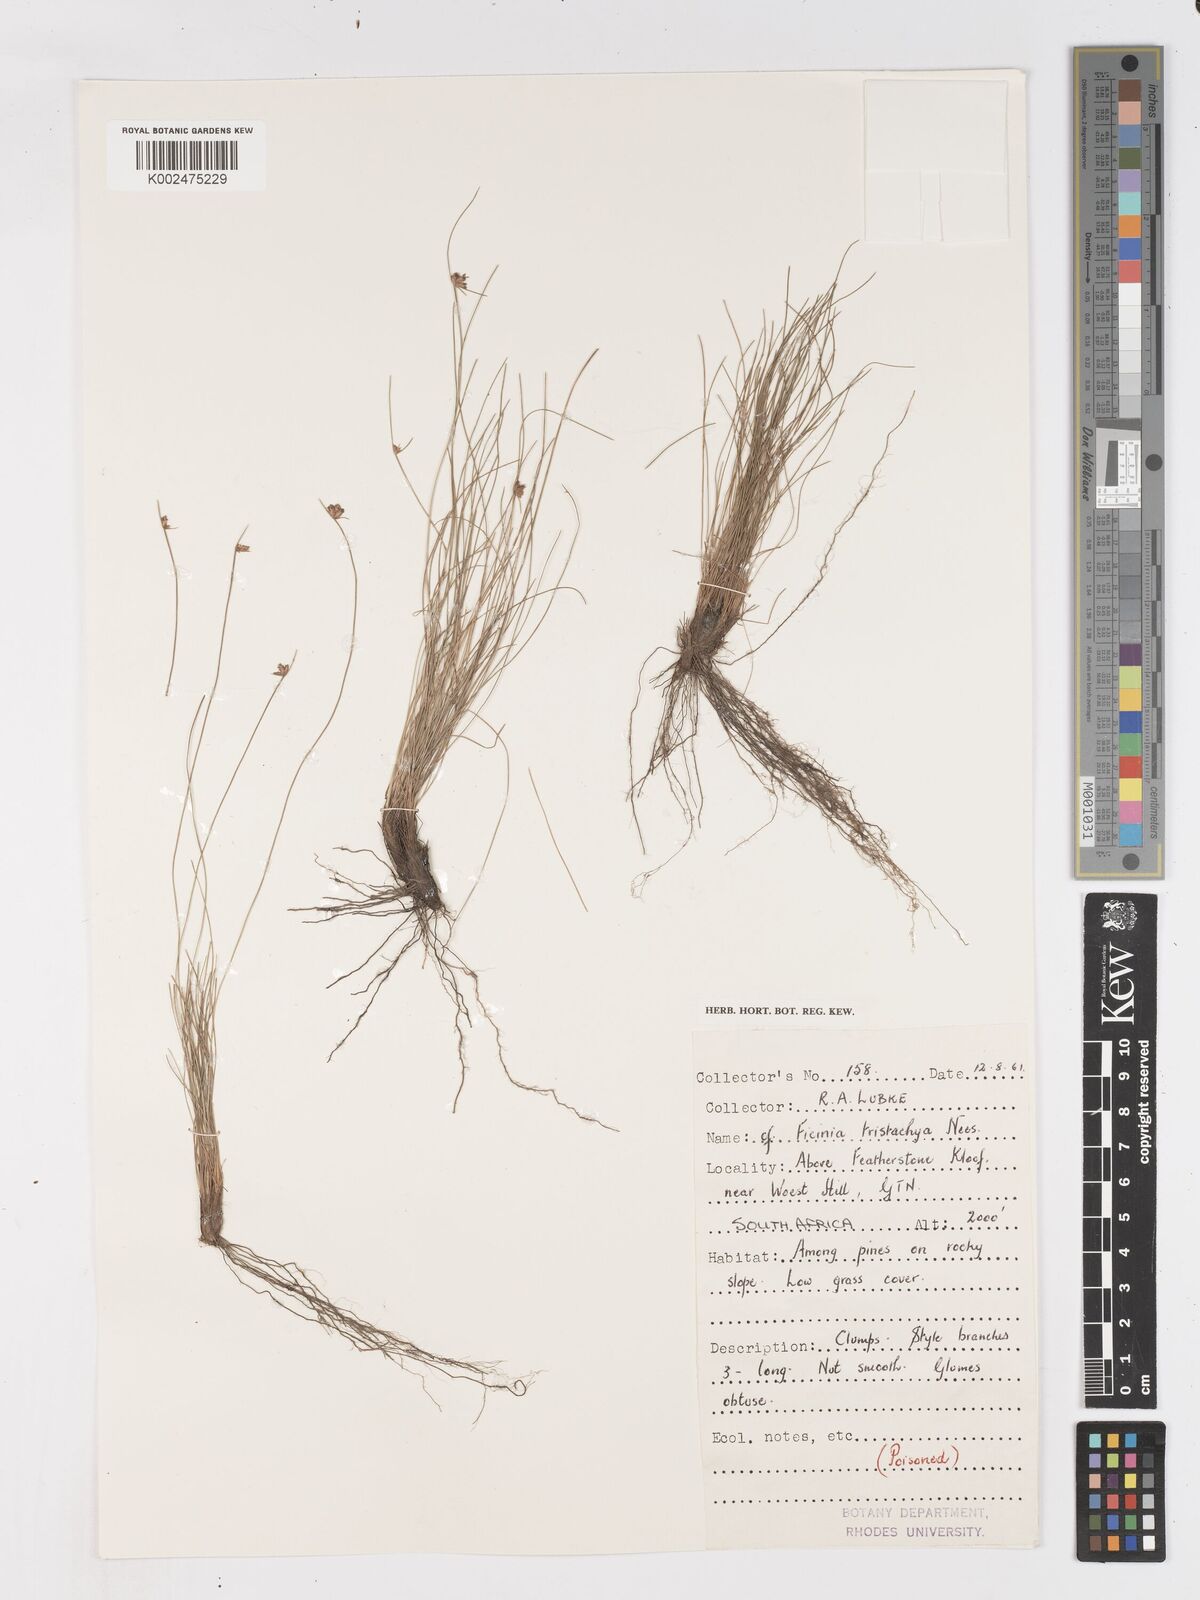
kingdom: Plantae
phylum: Tracheophyta
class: Liliopsida
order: Poales
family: Cyperaceae
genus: Ficinia
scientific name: Ficinia tristachya
